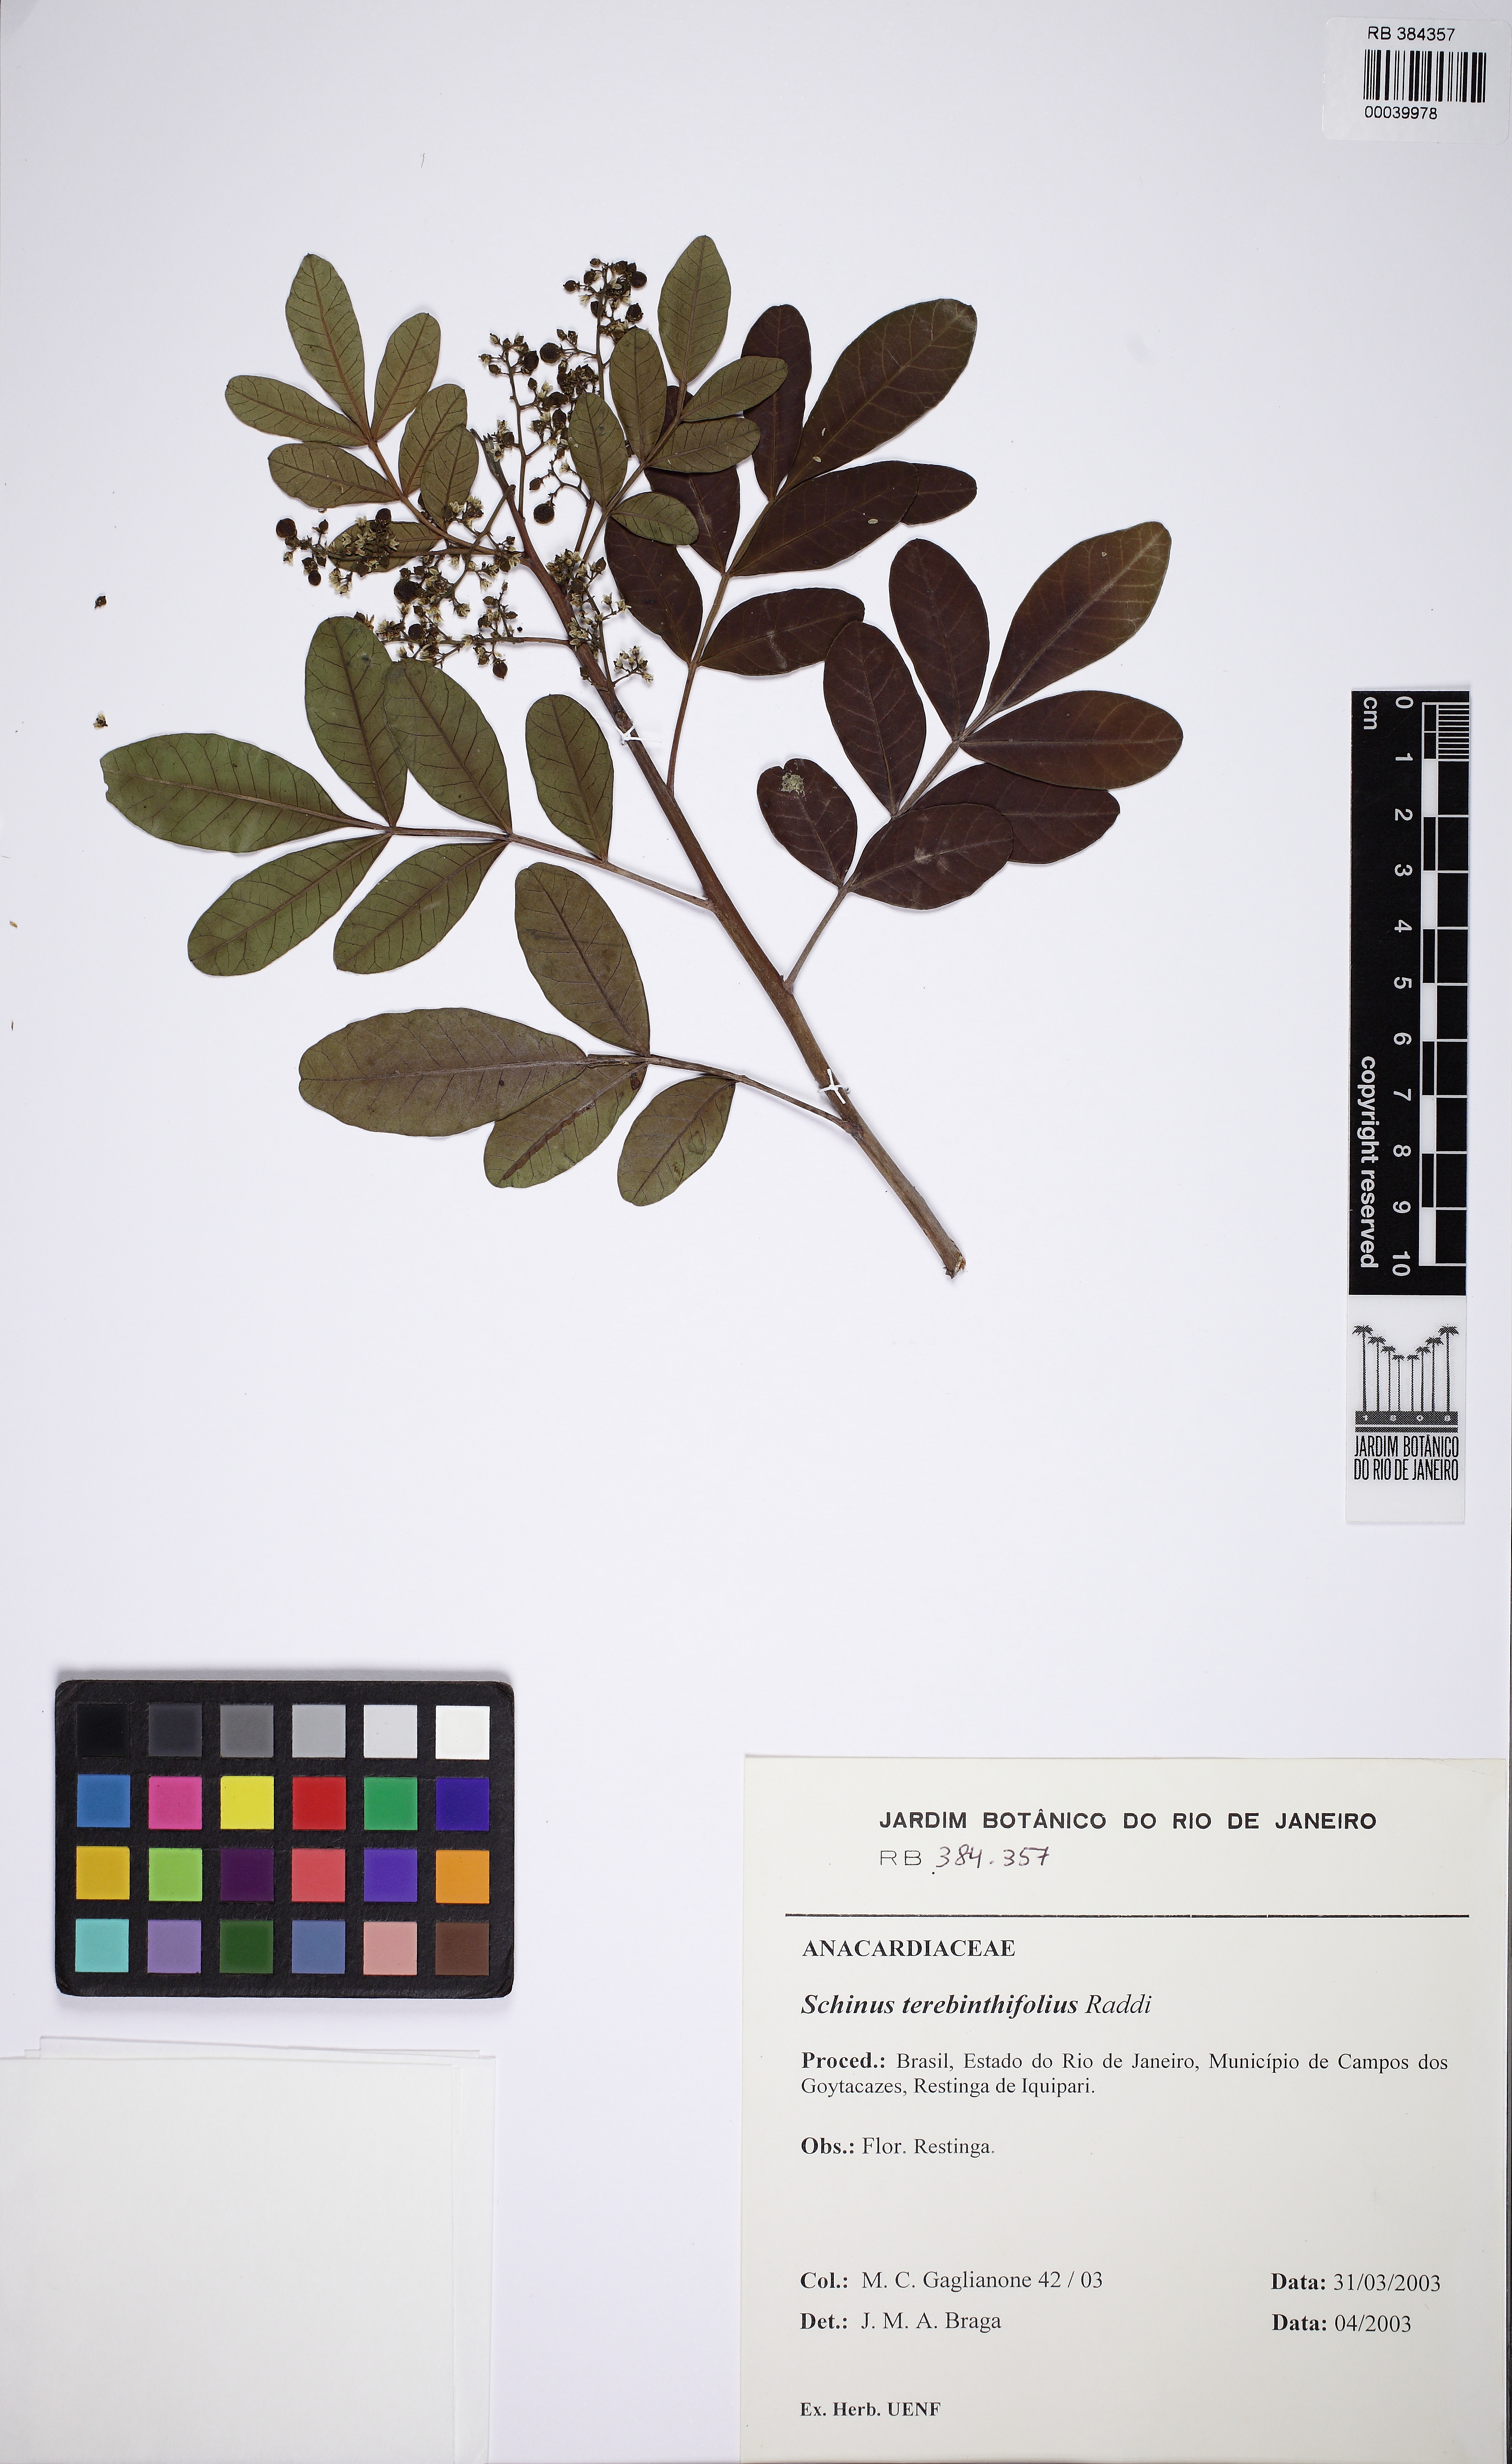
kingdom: Plantae
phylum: Tracheophyta
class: Magnoliopsida
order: Sapindales
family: Anacardiaceae
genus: Schinus
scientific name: Schinus terebinthifolia
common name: Brazilian peppertree
